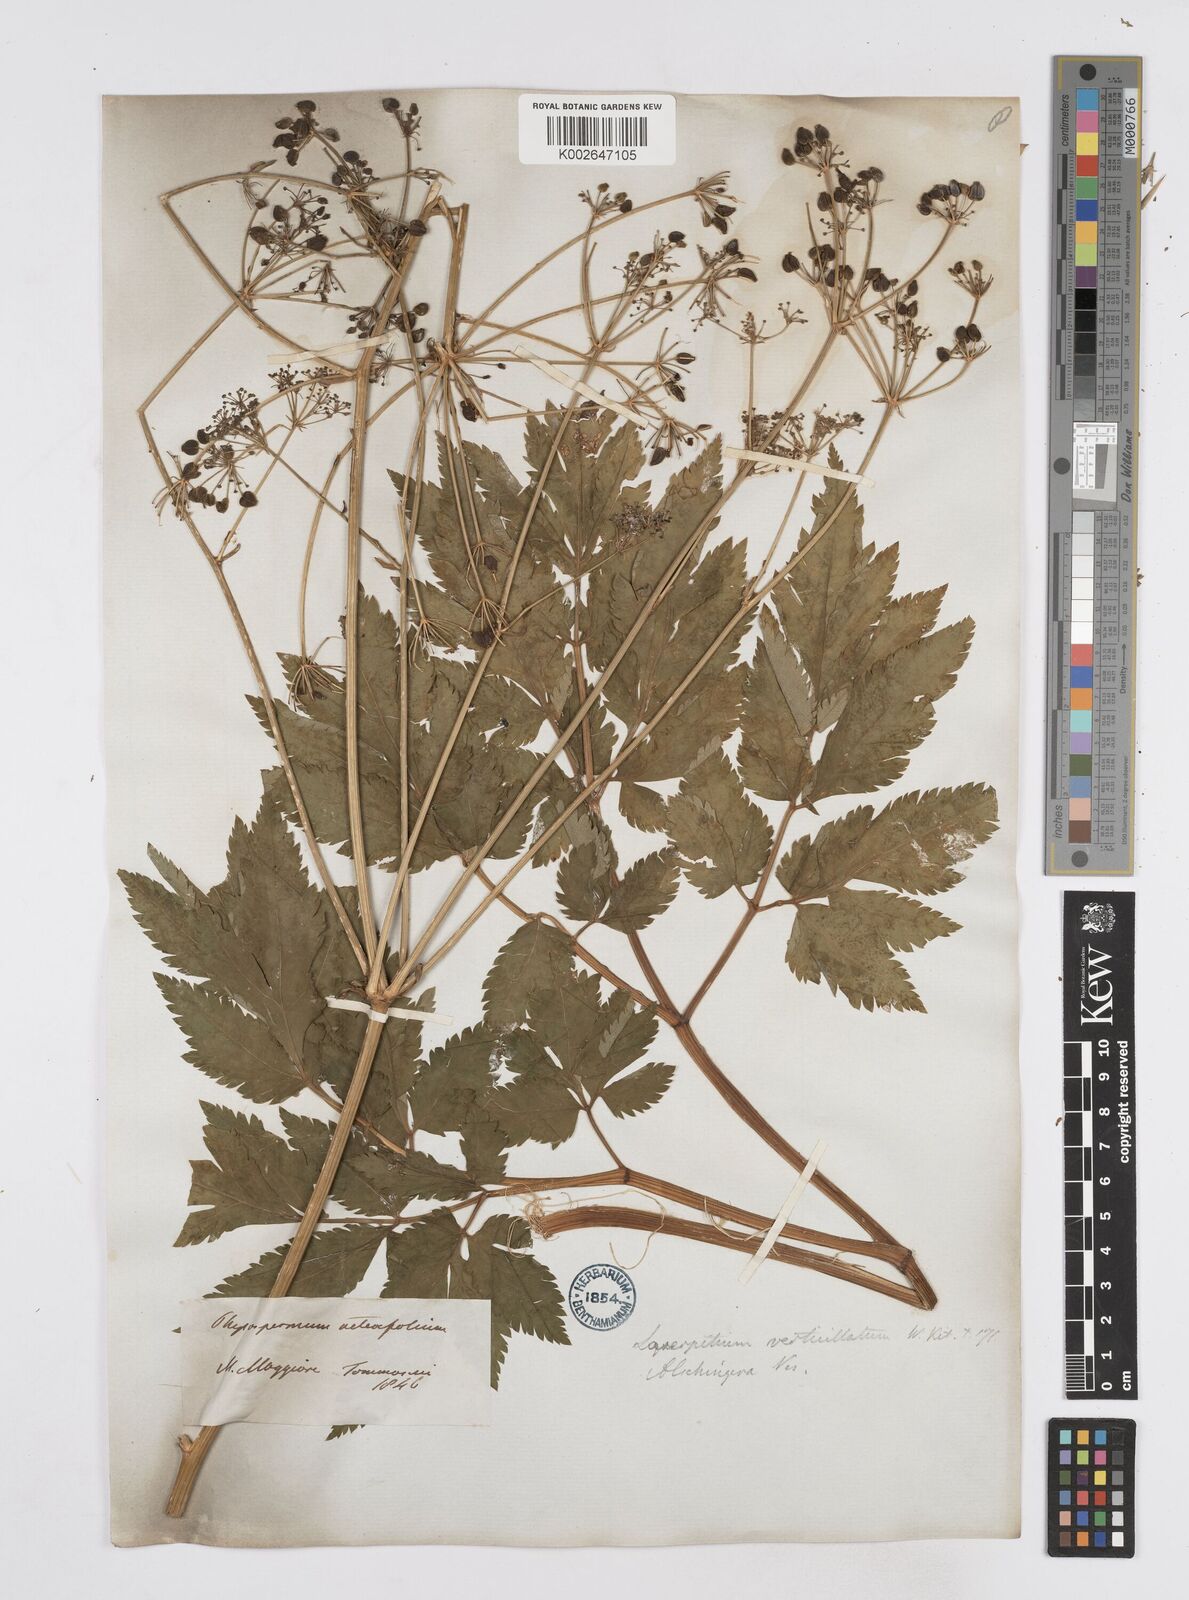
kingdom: Plantae
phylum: Tracheophyta
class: Magnoliopsida
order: Apiales
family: Apiaceae
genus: Physospermum
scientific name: Physospermum verticillatum
